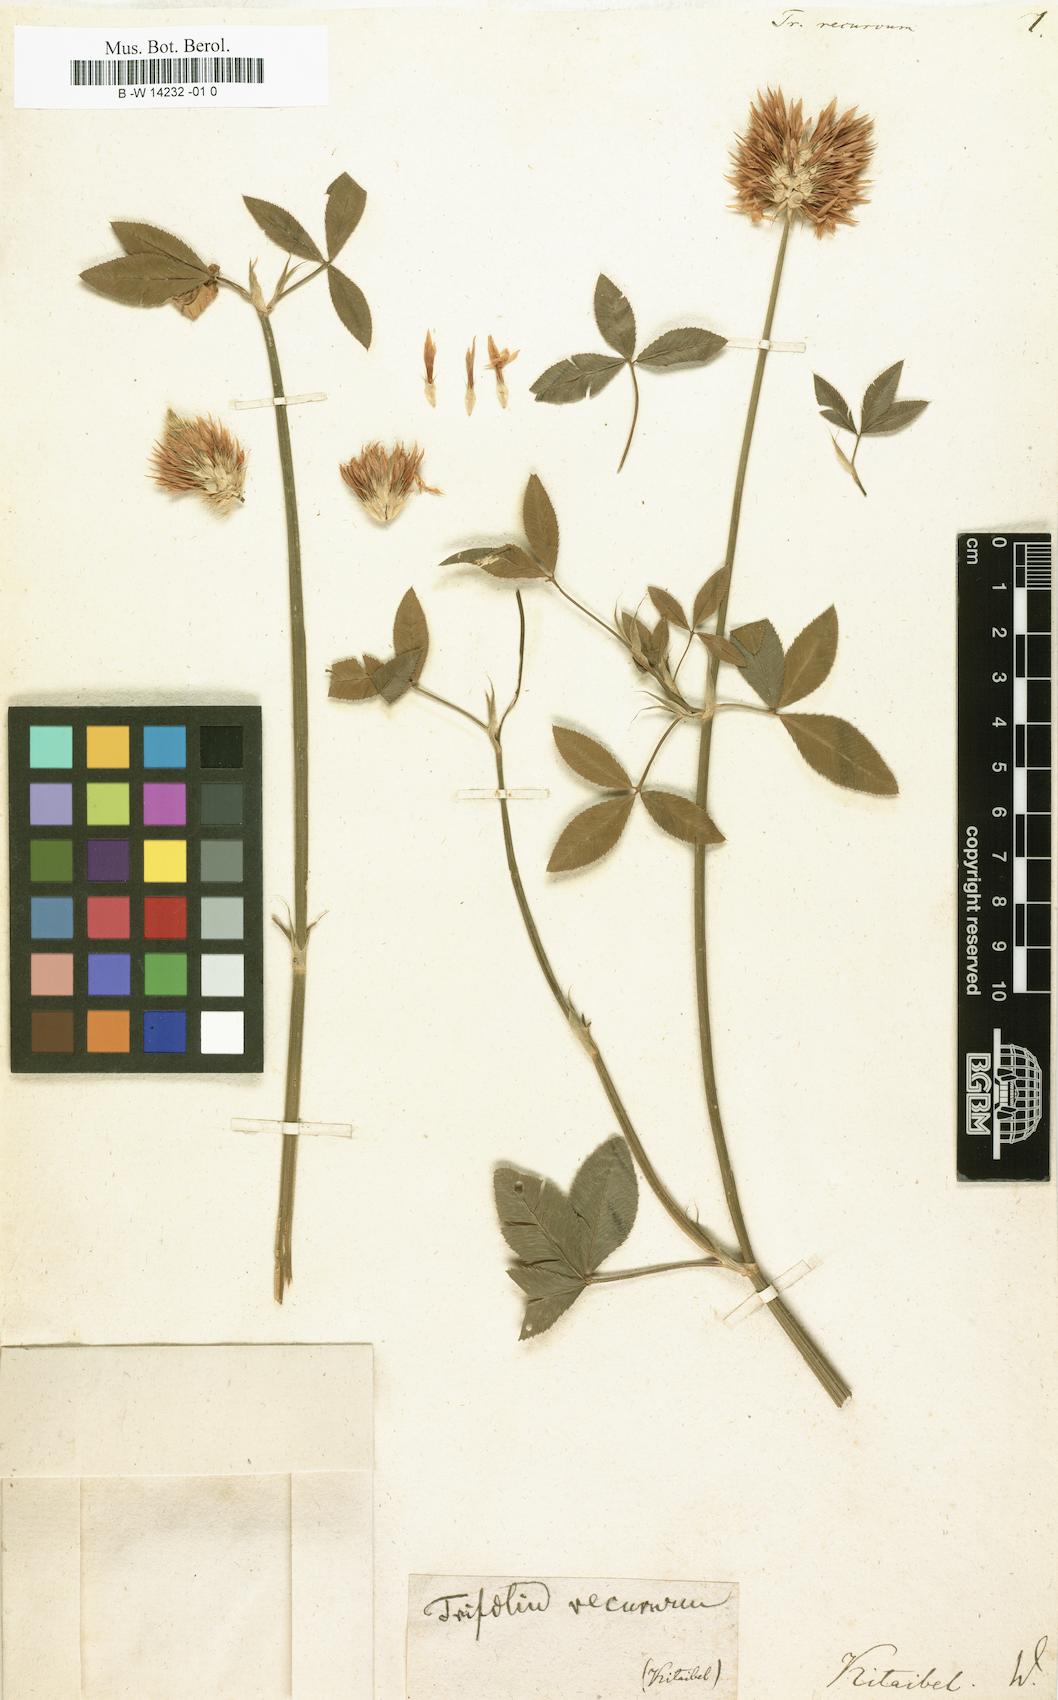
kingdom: Plantae
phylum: Tracheophyta
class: Magnoliopsida
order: Fabales
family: Fabaceae
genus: Trifolium
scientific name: Trifolium vesiculosum
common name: Arrowleaf clover
